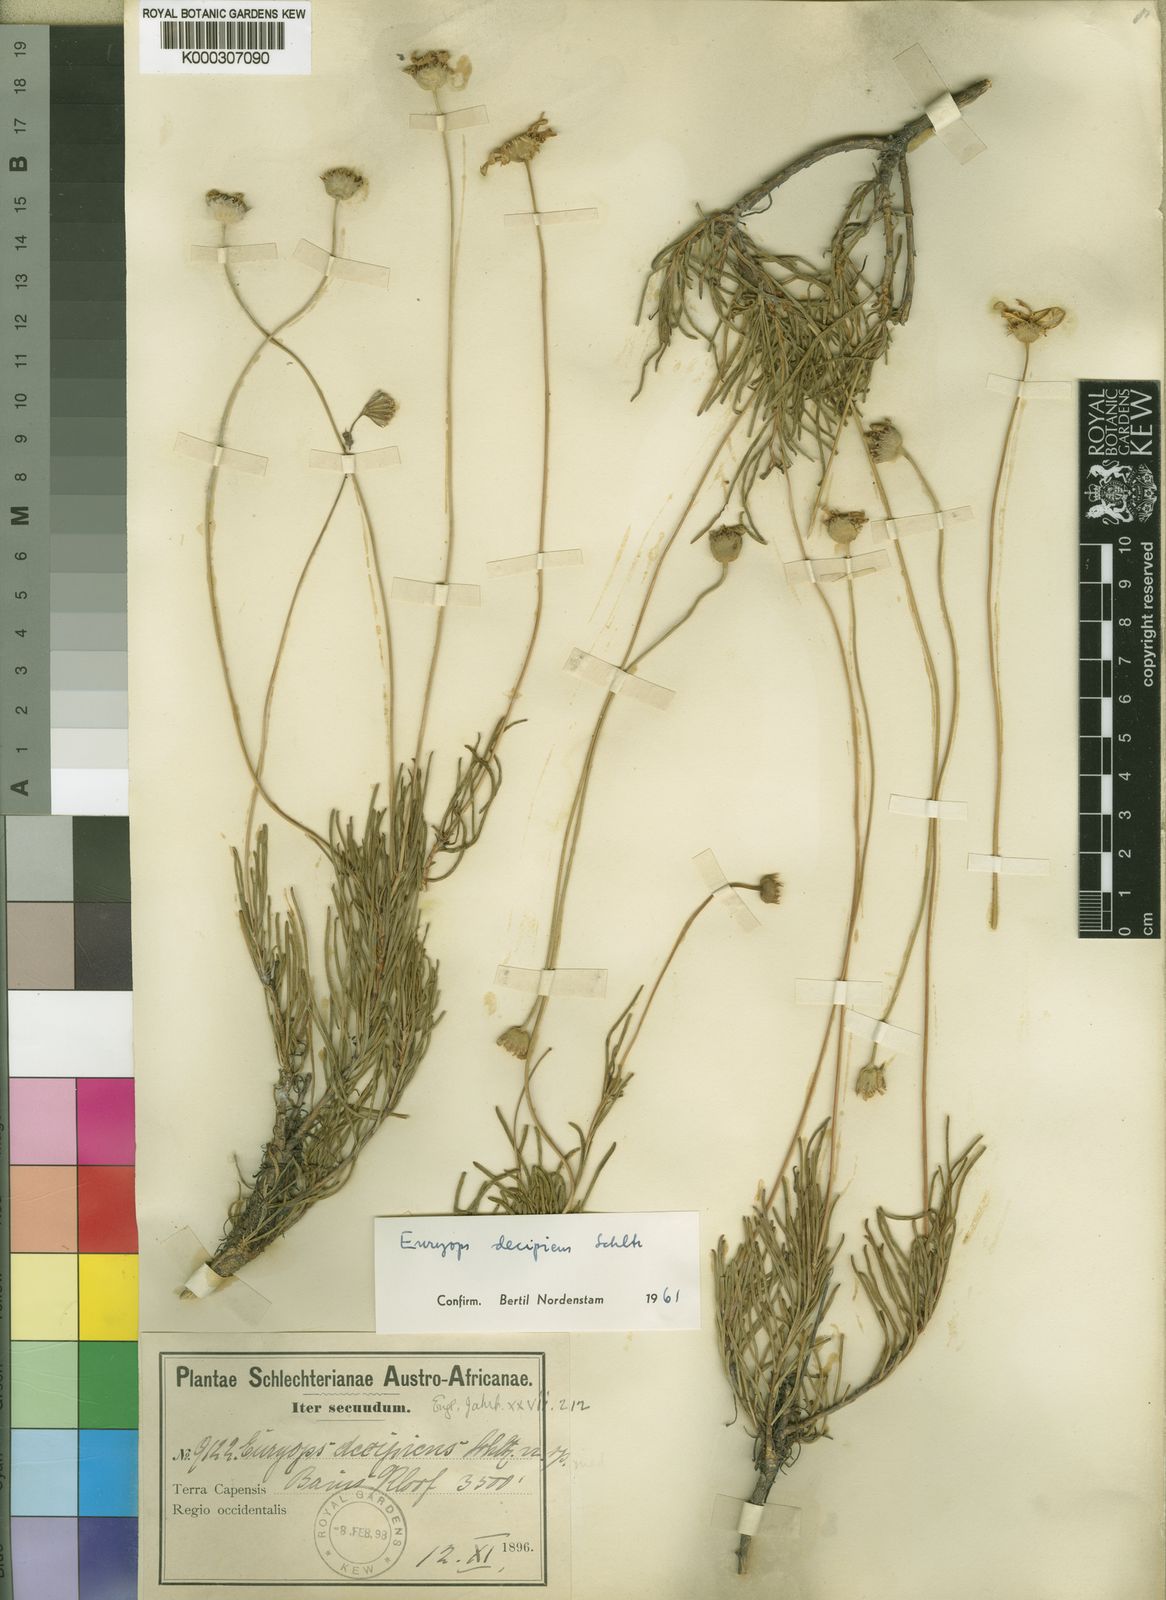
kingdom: Plantae
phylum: Tracheophyta
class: Magnoliopsida
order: Asterales
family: Asteraceae
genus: Euryops
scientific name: Euryops decipiens
